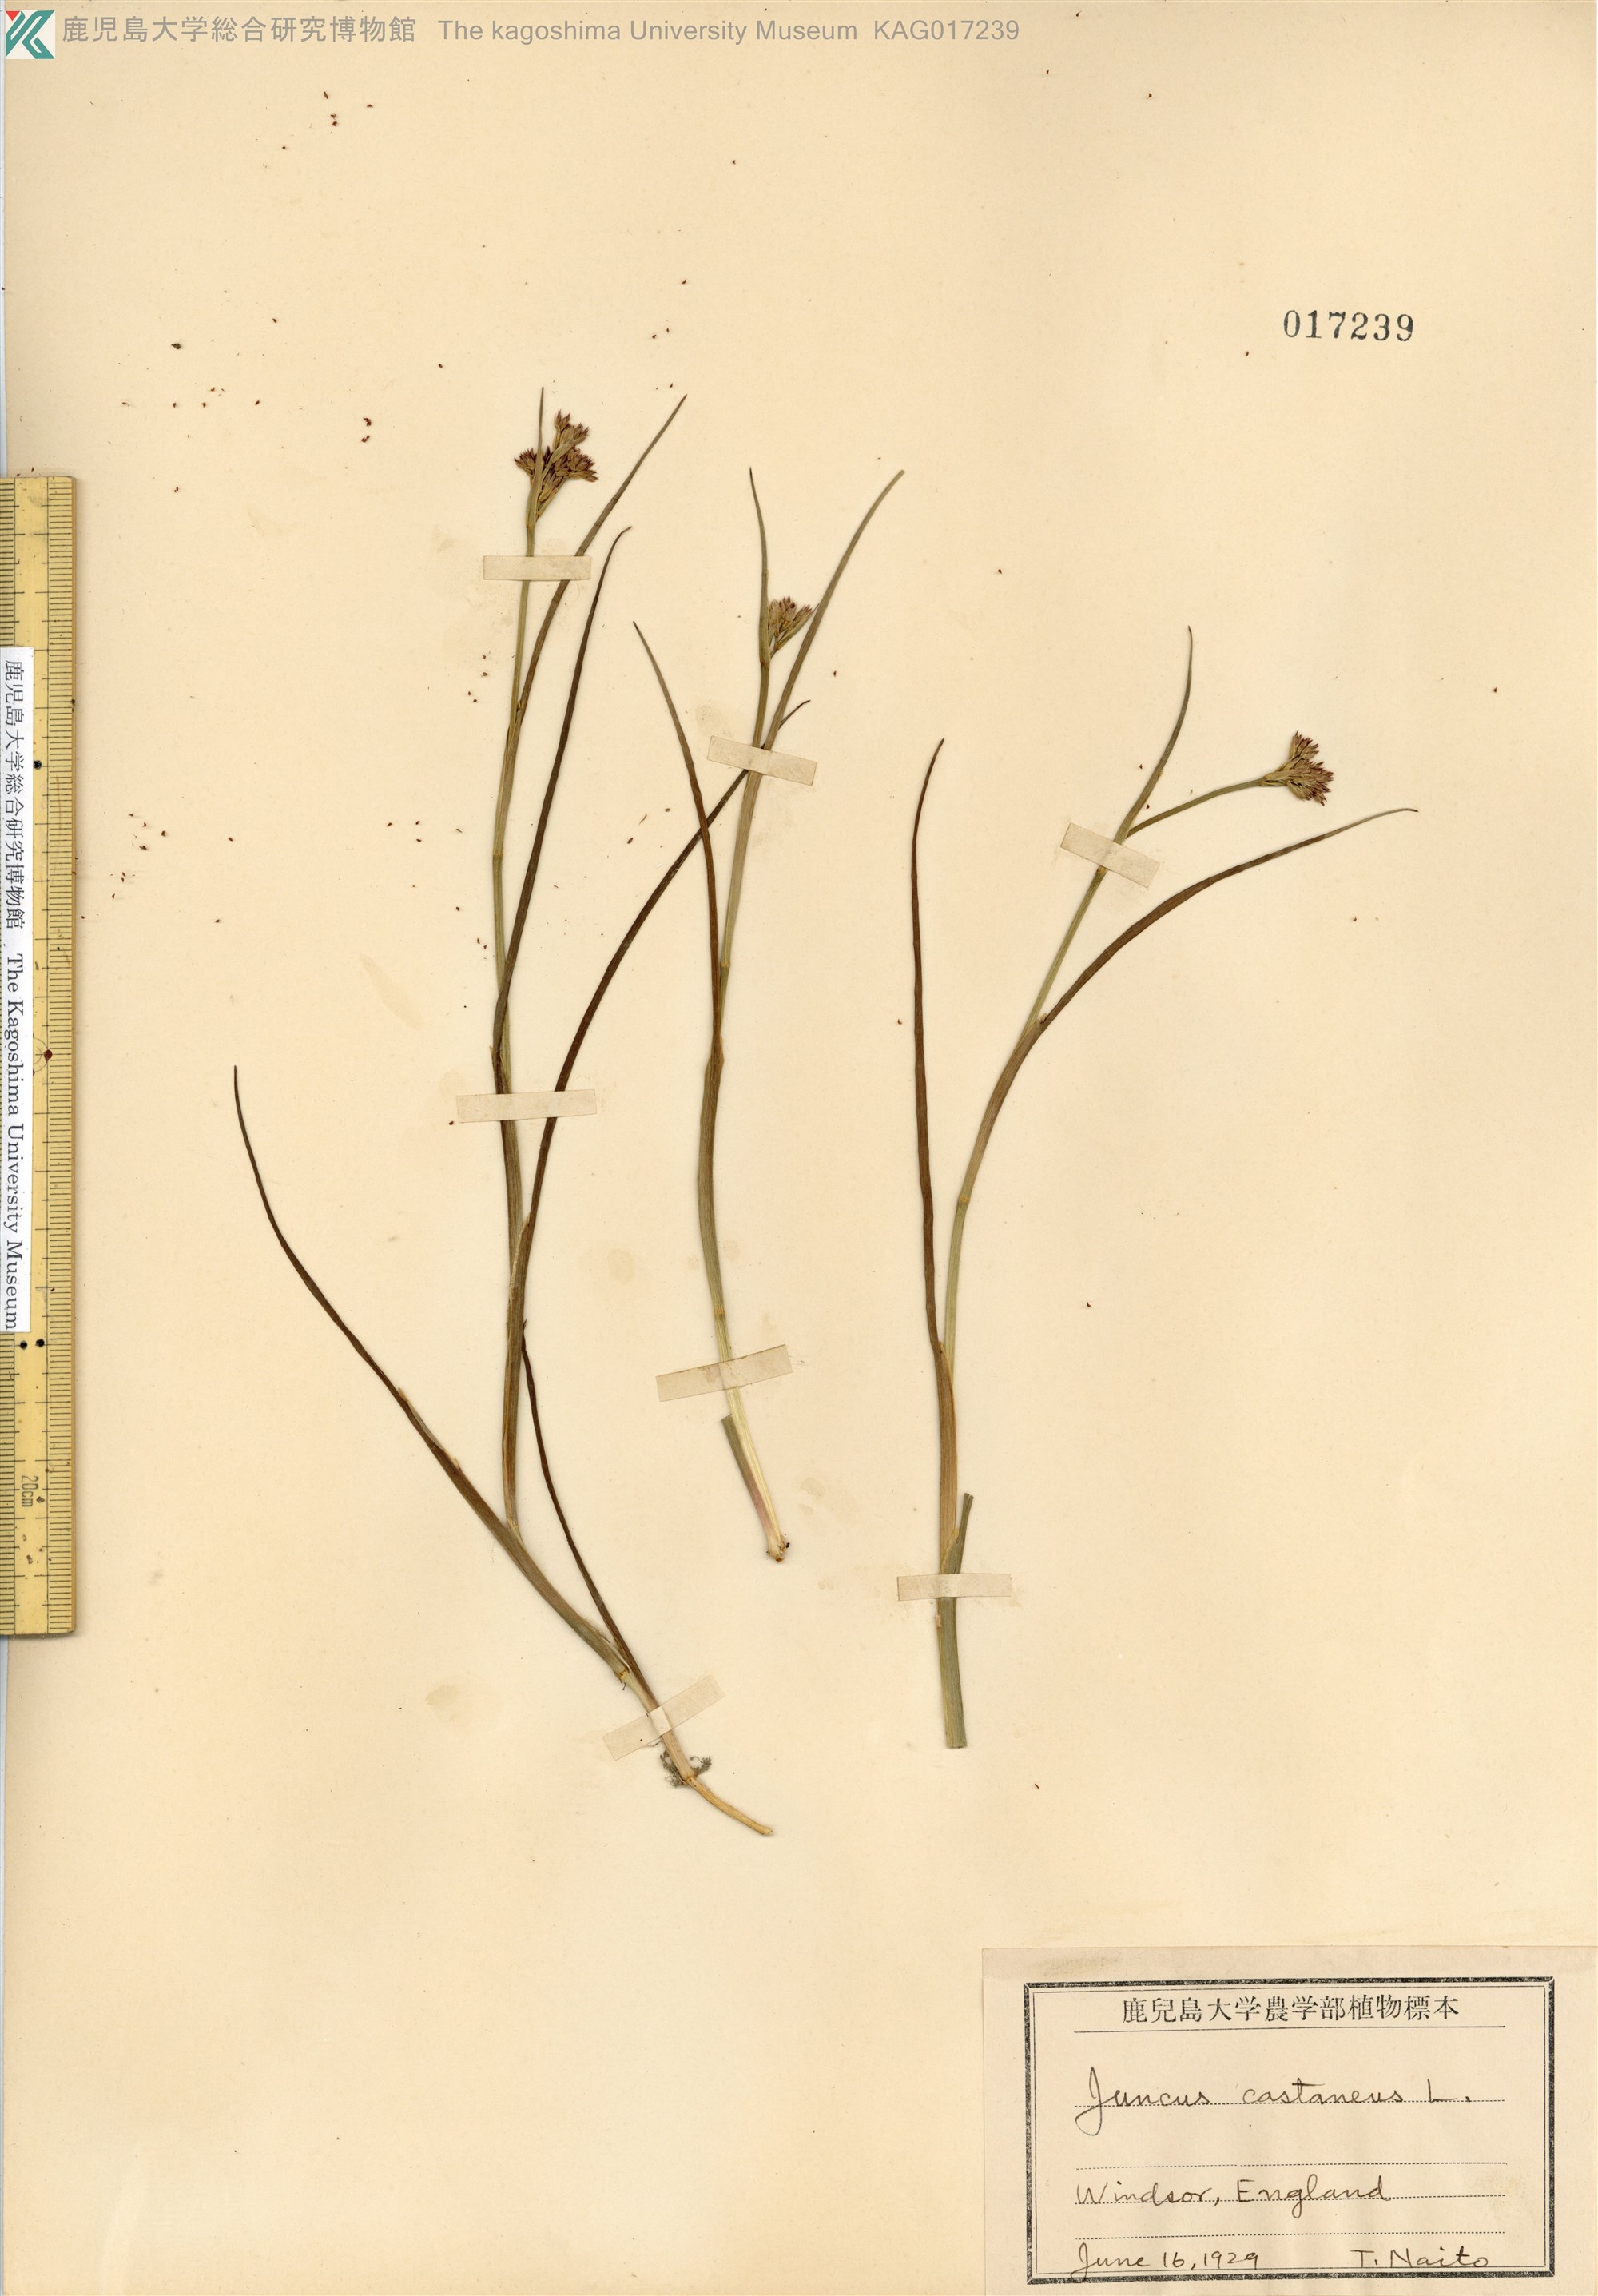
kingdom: Plantae
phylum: Tracheophyta
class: Liliopsida
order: Poales
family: Juncaceae
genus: Juncus
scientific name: Juncus castaneus
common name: Chestnut rush
